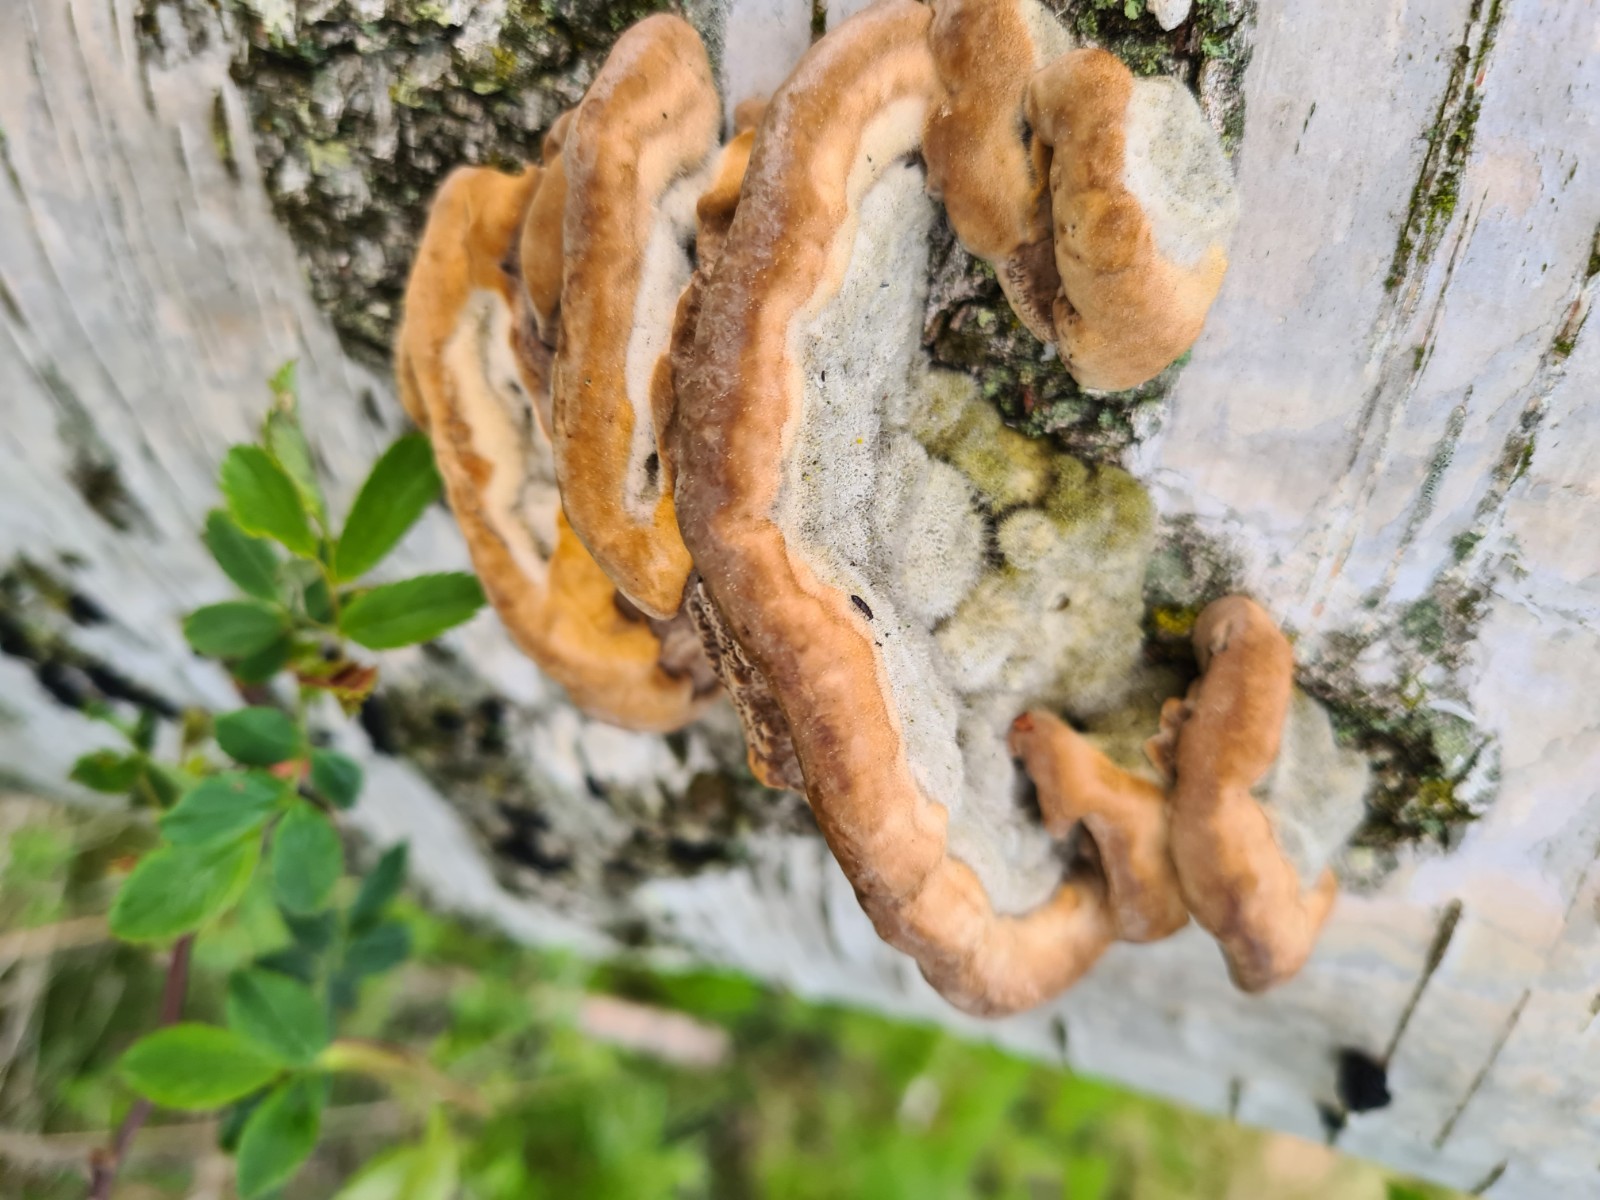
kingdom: Fungi
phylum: Basidiomycota
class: Agaricomycetes
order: Polyporales
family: Cerrenaceae
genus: Cerrena
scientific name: Cerrena unicolor
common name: ensfarvet læderporesvamp
